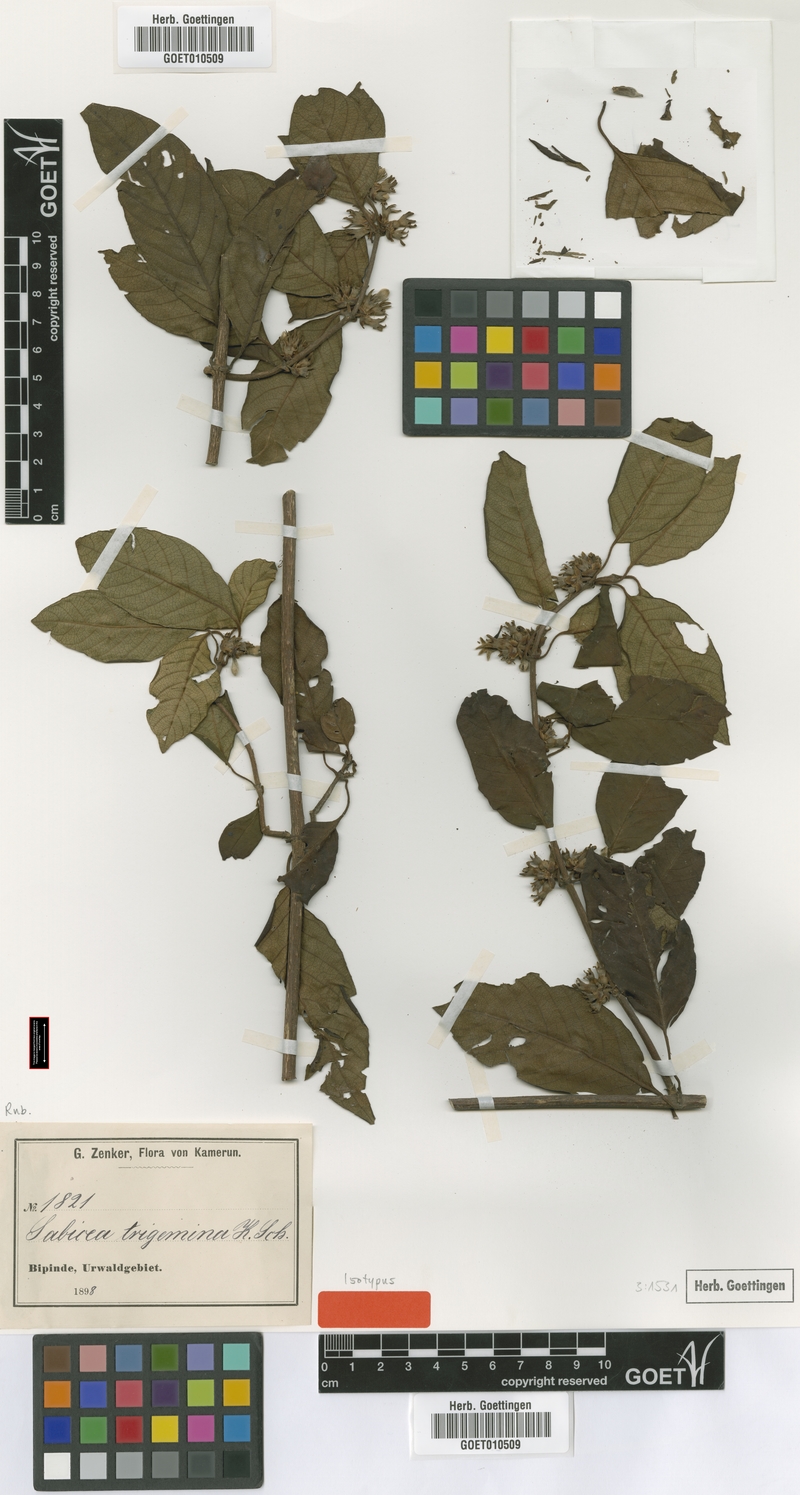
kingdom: Plantae
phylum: Tracheophyta
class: Magnoliopsida
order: Gentianales
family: Rubiaceae
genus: Sabicea
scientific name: Sabicea trigemina
